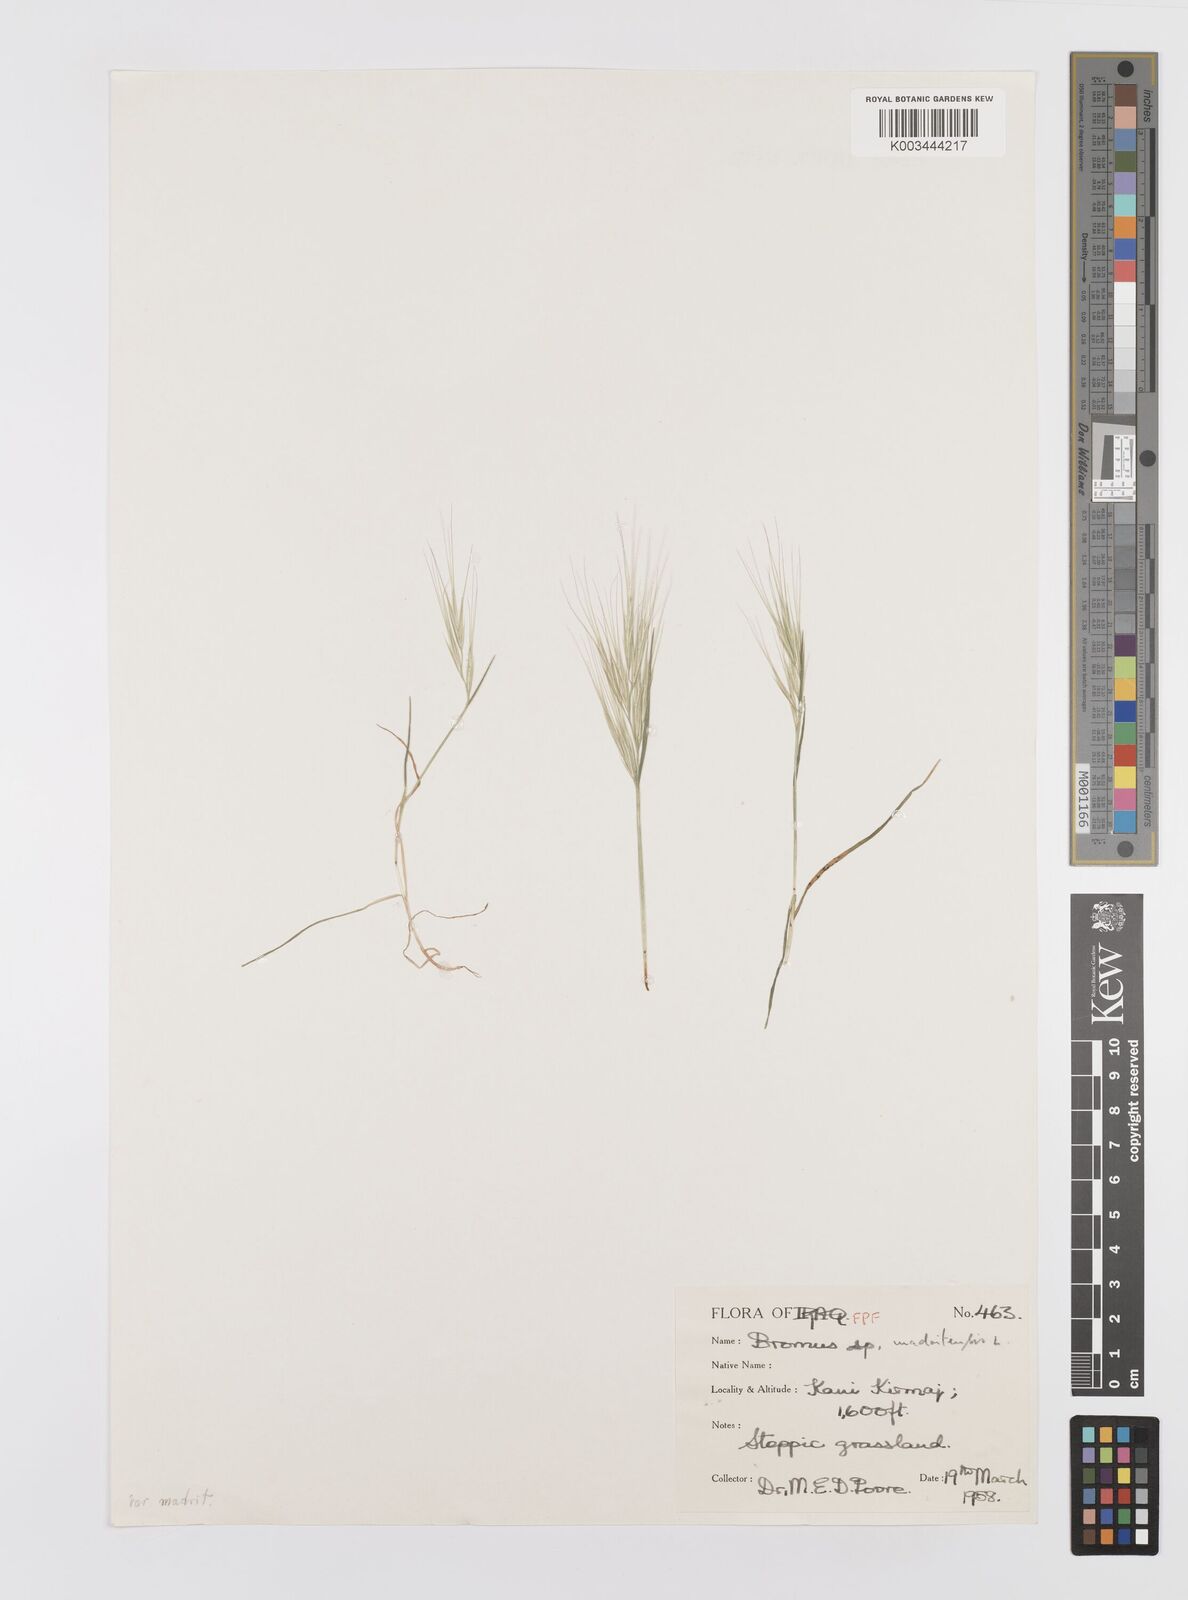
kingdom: Plantae
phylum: Tracheophyta
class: Liliopsida
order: Poales
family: Poaceae
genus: Bromus
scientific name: Bromus madritensis
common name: Compact brome
